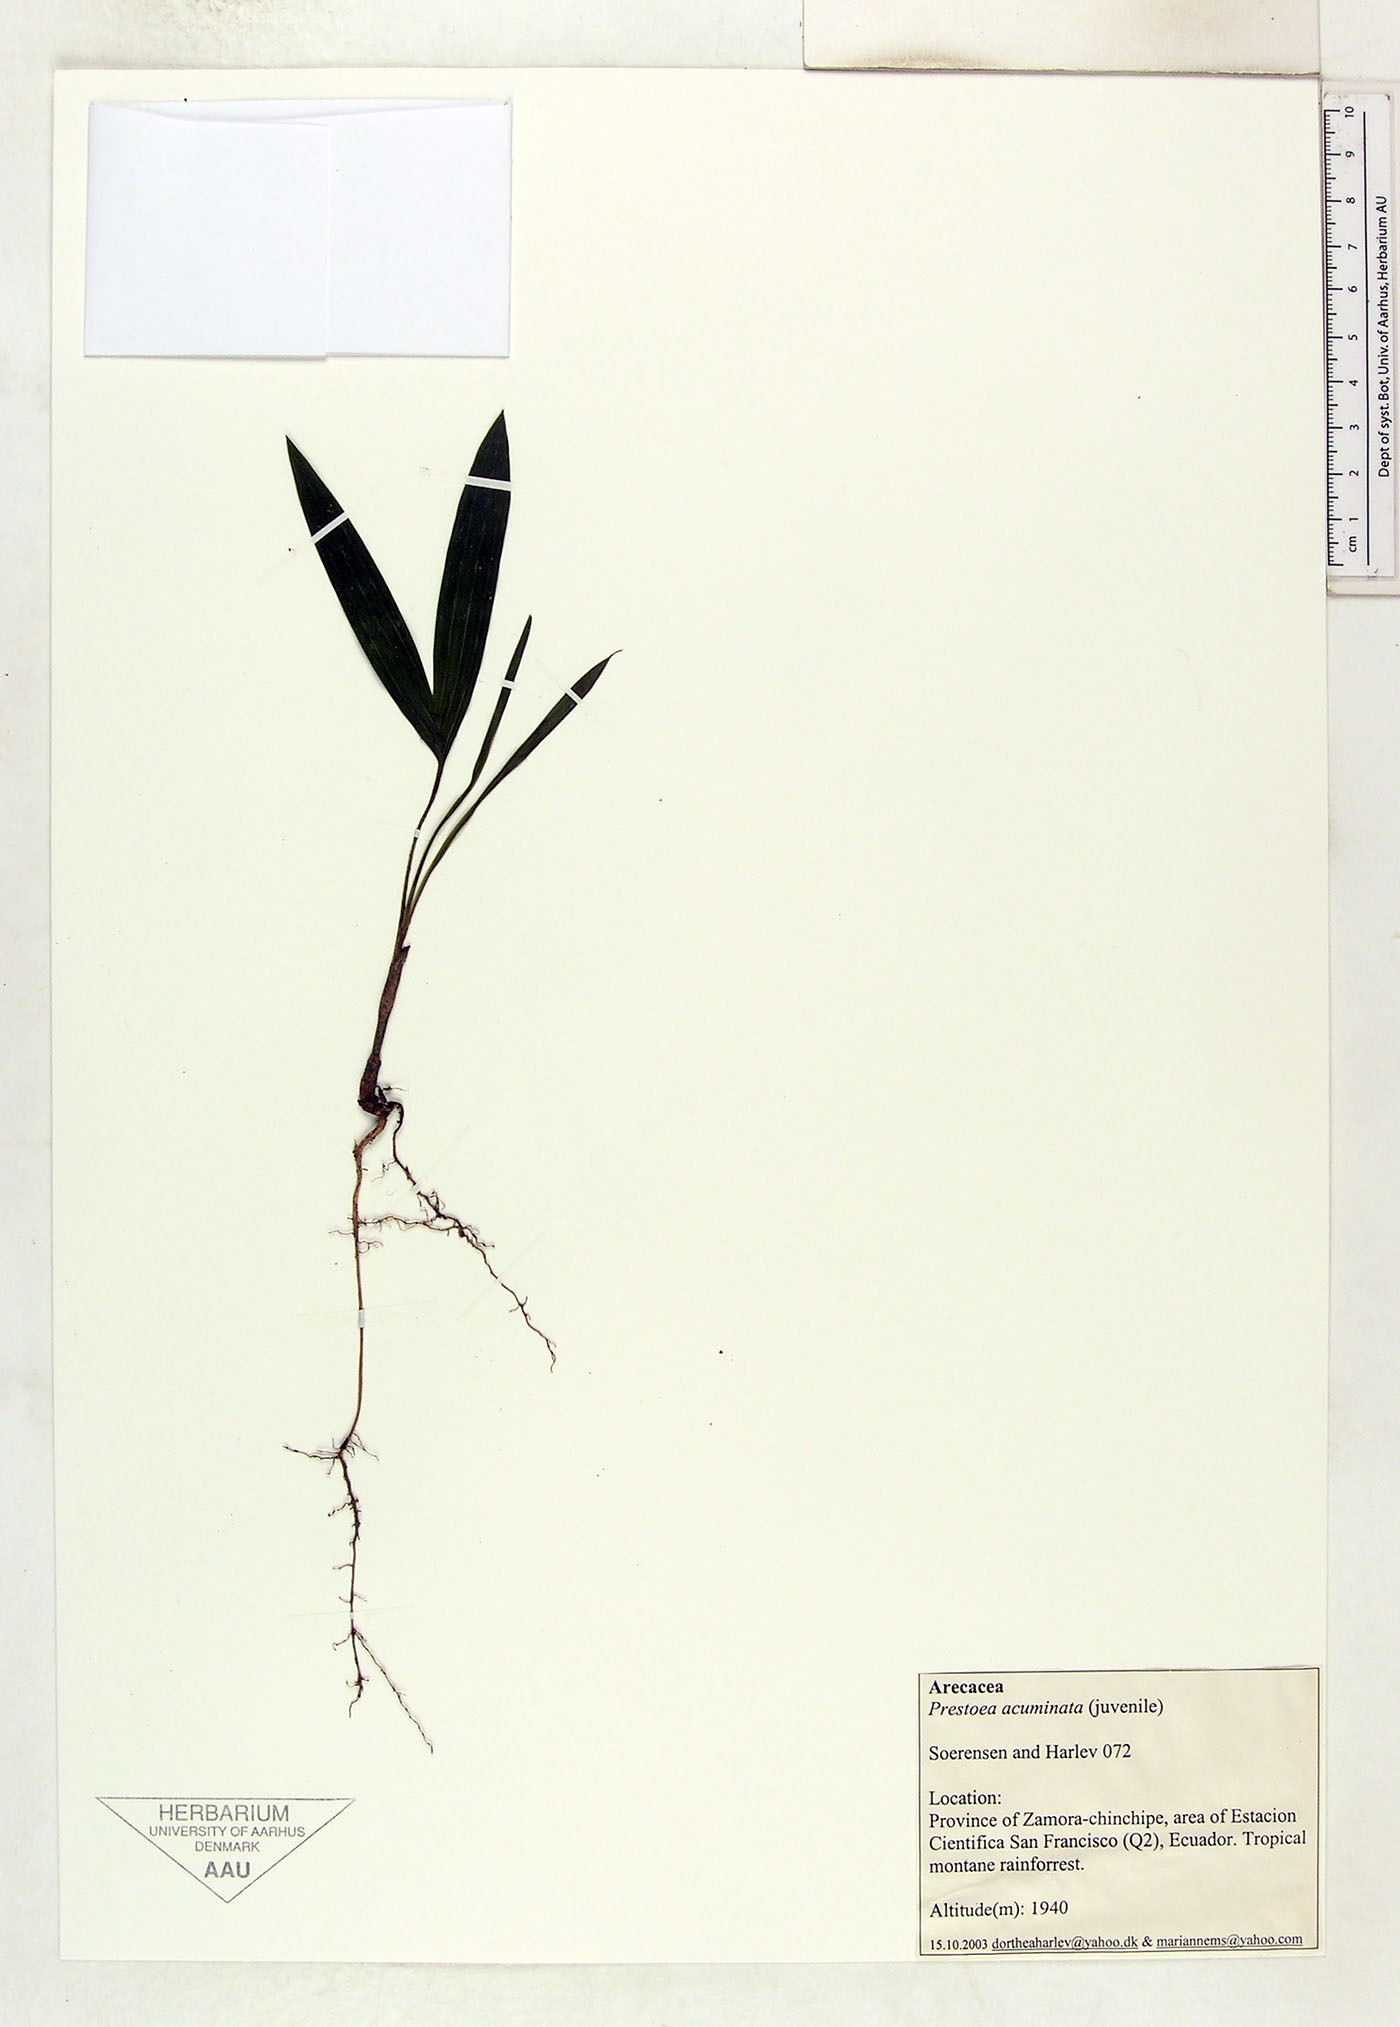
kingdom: Plantae
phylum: Tracheophyta
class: Liliopsida
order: Arecales
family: Arecaceae
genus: Prestoea
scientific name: Prestoea acuminata
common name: Sierran palm
